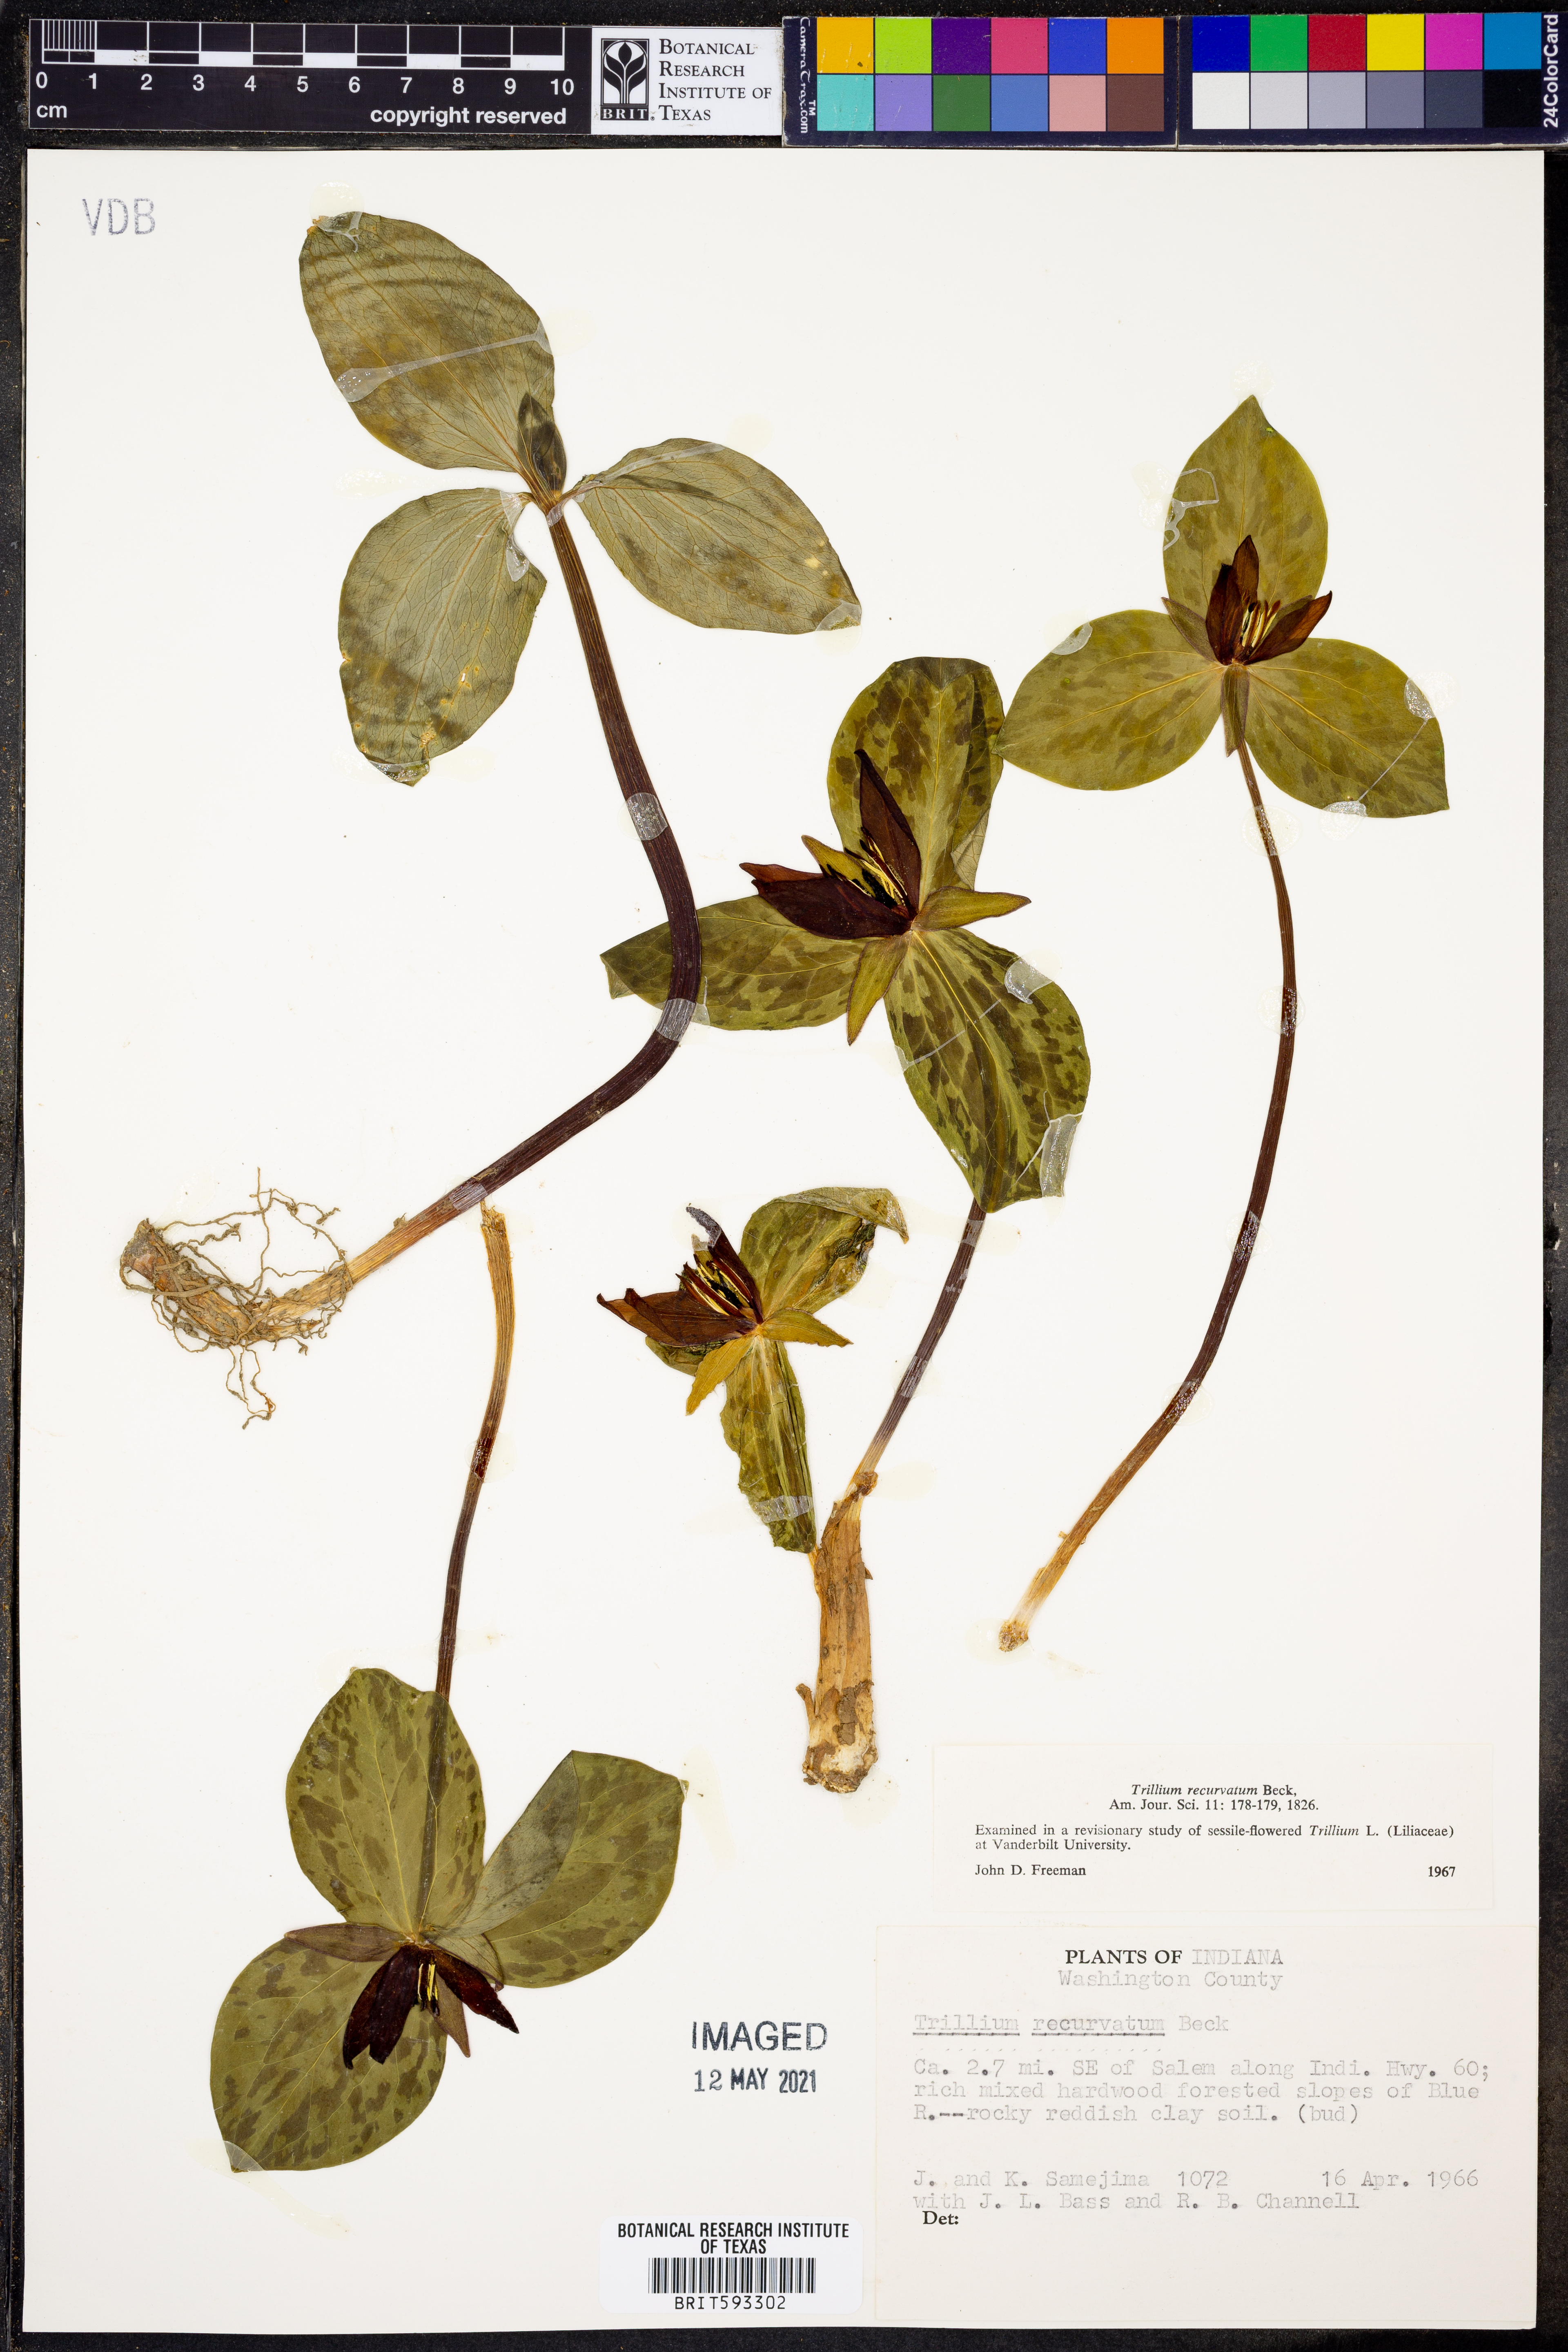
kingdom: Plantae
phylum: Tracheophyta
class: Liliopsida
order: Liliales
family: Melanthiaceae
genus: Trillium
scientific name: Trillium recurvatum
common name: Bloody butcher
